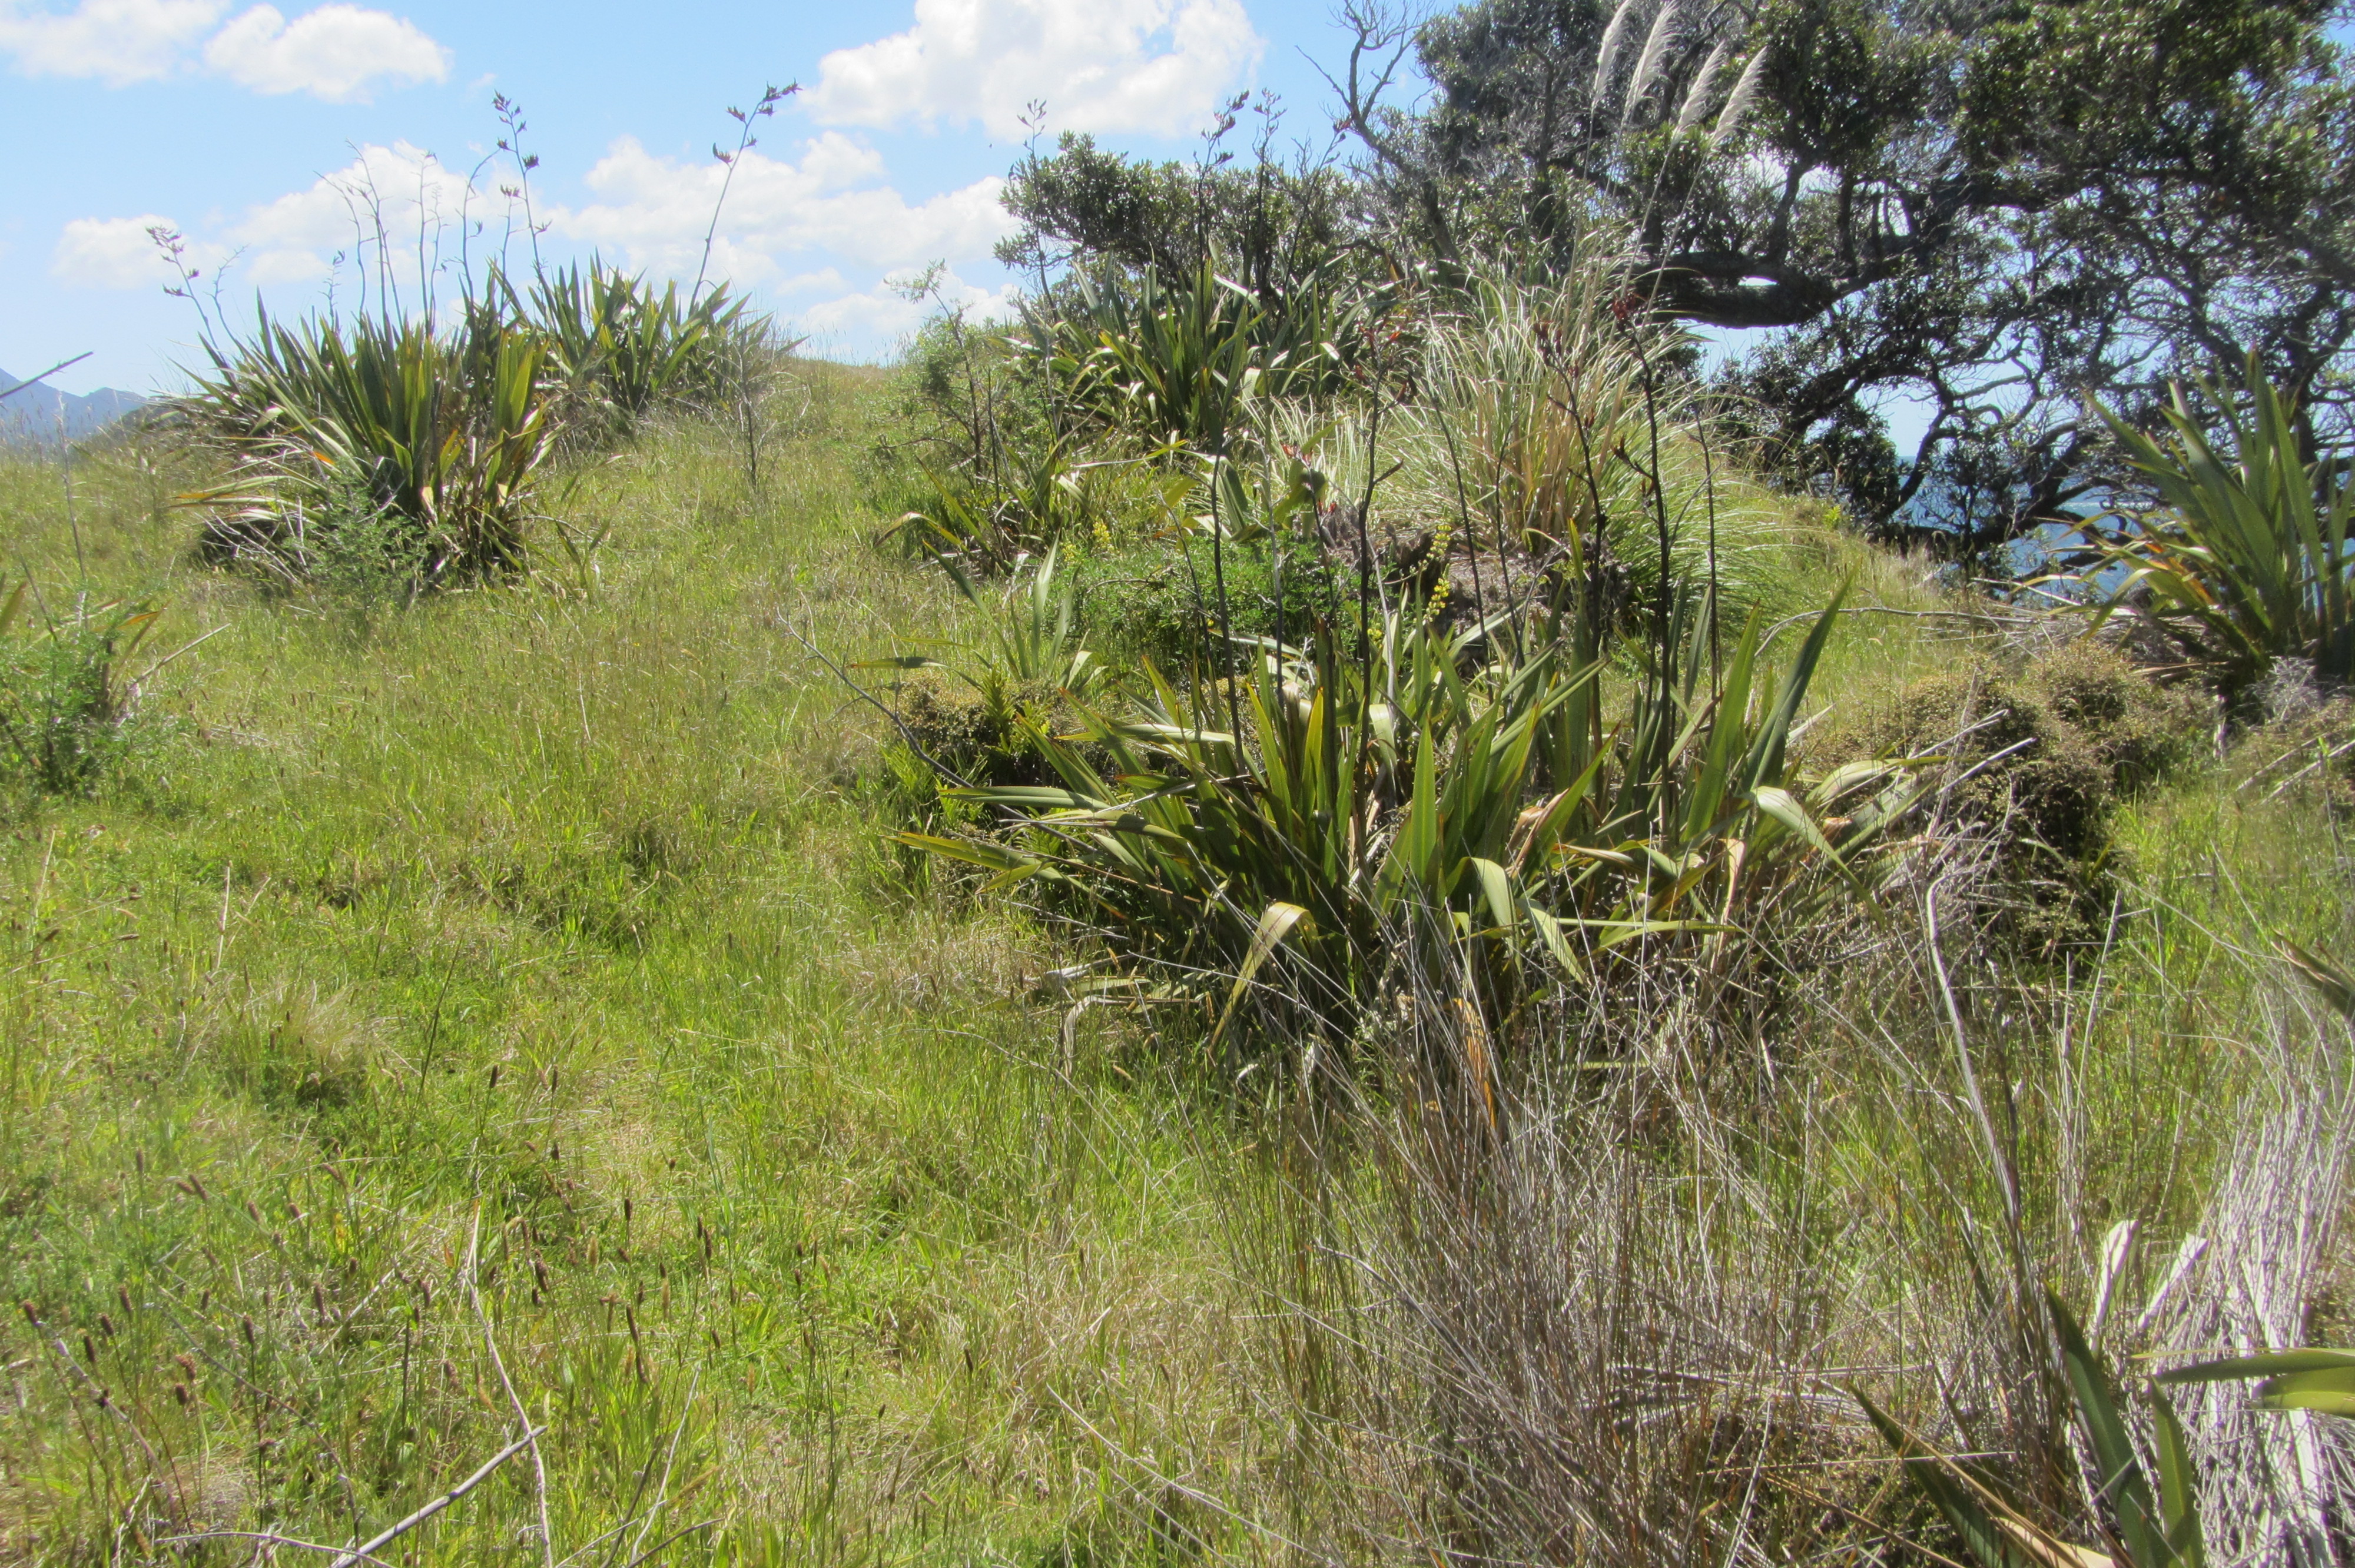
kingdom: Plantae
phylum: Tracheophyta
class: Magnoliopsida
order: Gentianales
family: Rubiaceae
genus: Galium
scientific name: Galium aparine
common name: Cleavers
